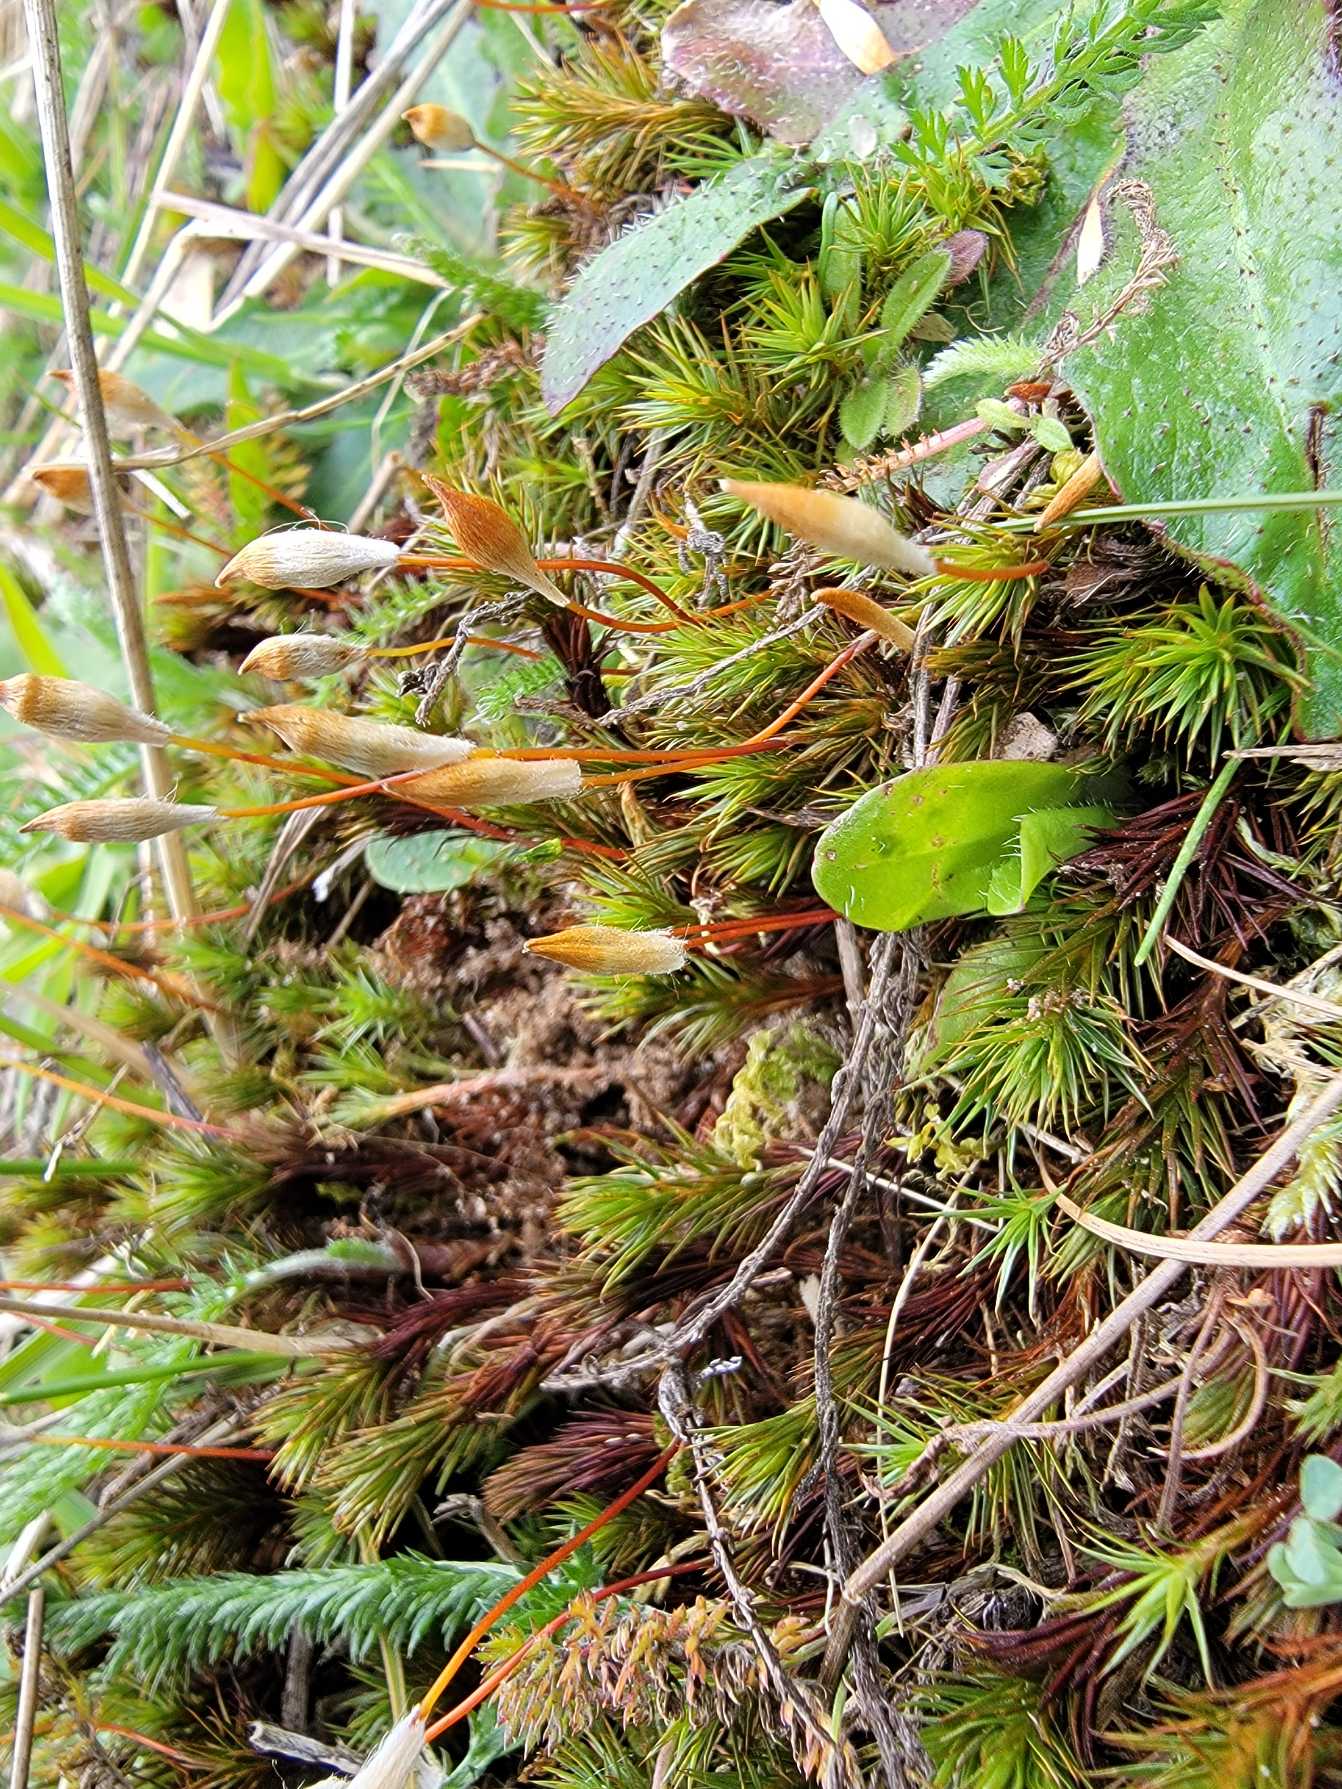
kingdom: Plantae
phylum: Bryophyta
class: Polytrichopsida
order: Polytrichales
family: Polytrichaceae
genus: Polytrichum
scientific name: Polytrichum juniperinum
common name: Ene-jomfruhår
